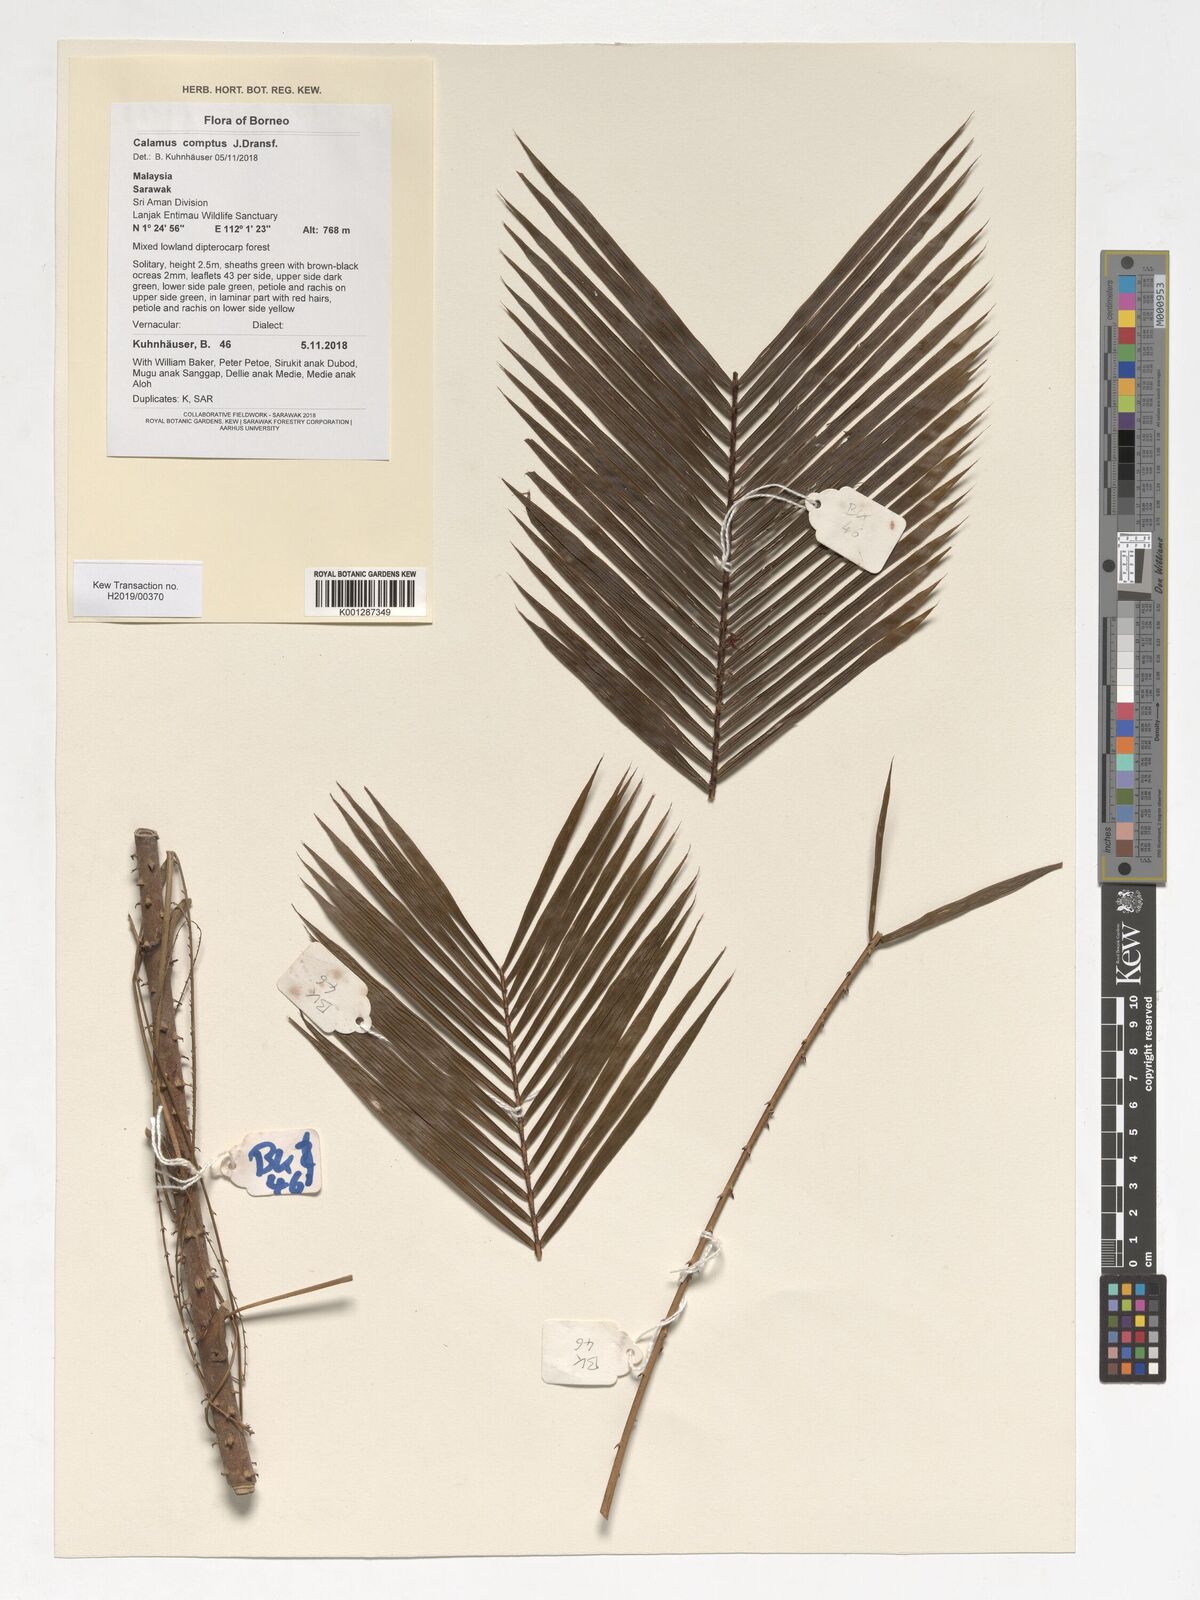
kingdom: Plantae
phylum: Tracheophyta
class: Liliopsida
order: Arecales
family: Arecaceae
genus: Calamus
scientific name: Calamus comptus
